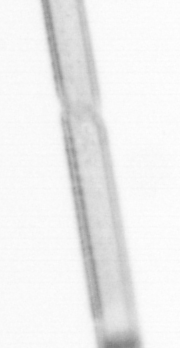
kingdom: Chromista
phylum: Ochrophyta
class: Bacillariophyceae
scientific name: Bacillariophyceae
